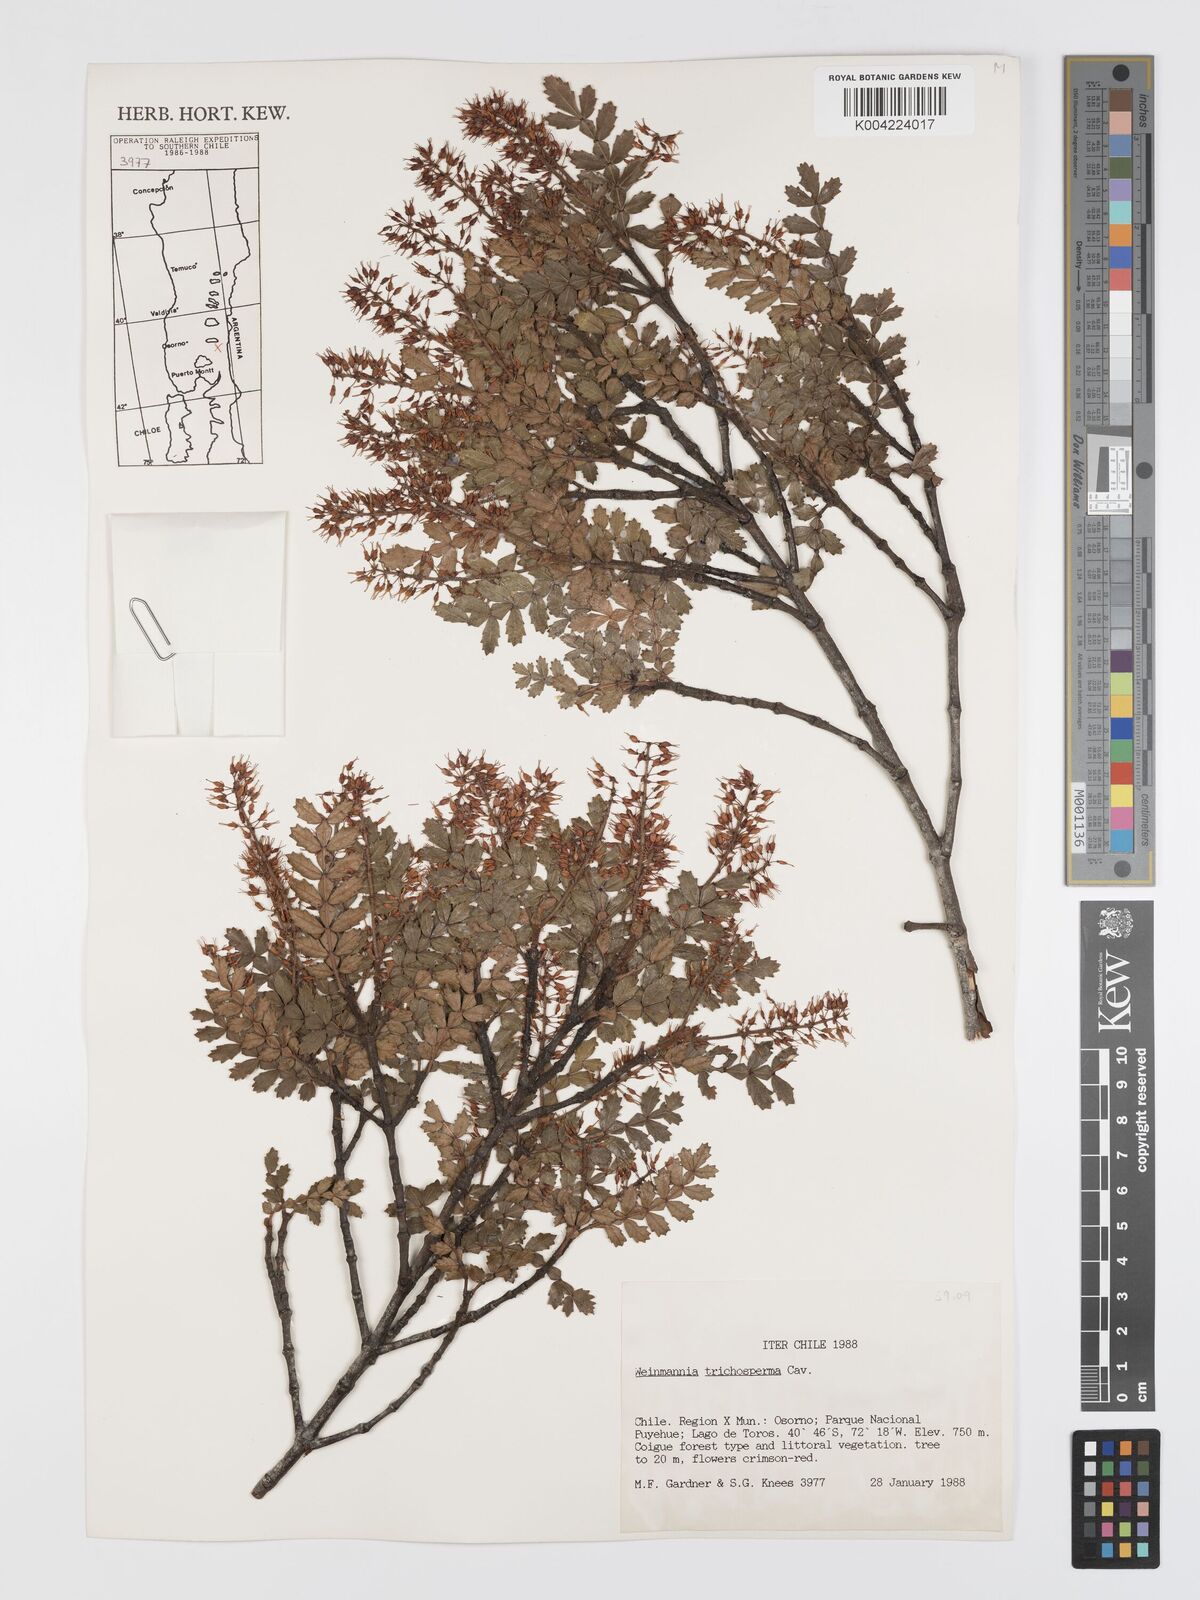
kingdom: Plantae
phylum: Tracheophyta
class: Magnoliopsida
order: Oxalidales
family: Cunoniaceae
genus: Weinmannia
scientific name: Weinmannia trichosperma
